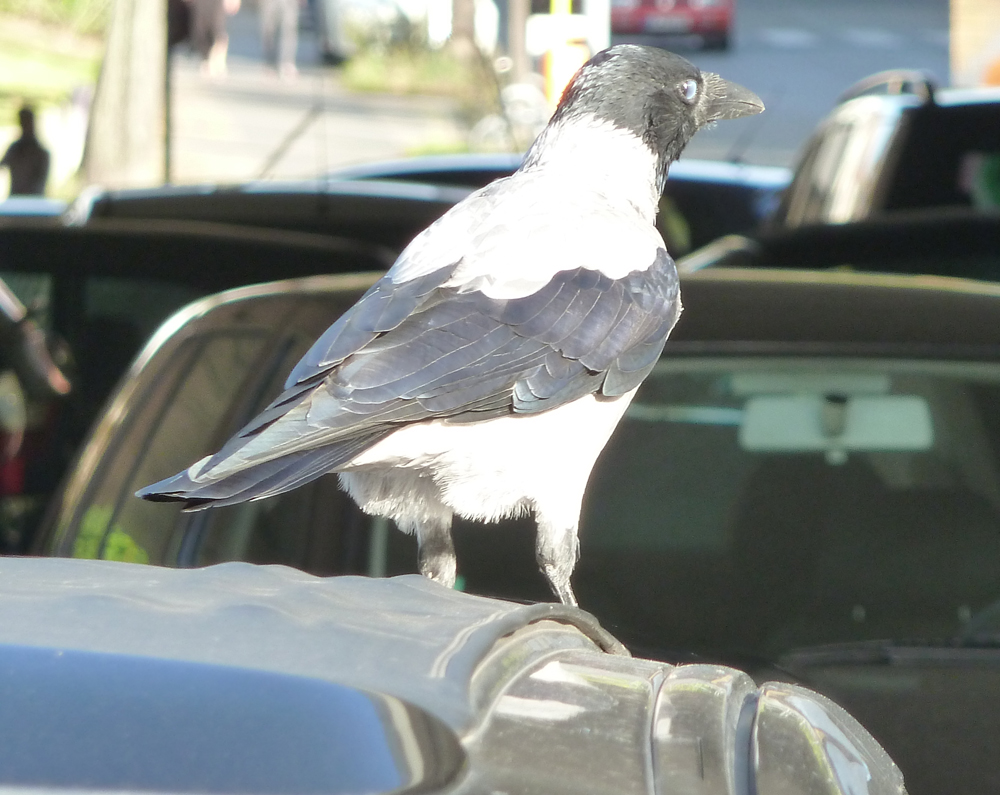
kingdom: Animalia
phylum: Chordata
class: Aves
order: Passeriformes
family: Corvidae
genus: Corvus
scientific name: Corvus cornix
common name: Hooded crow
